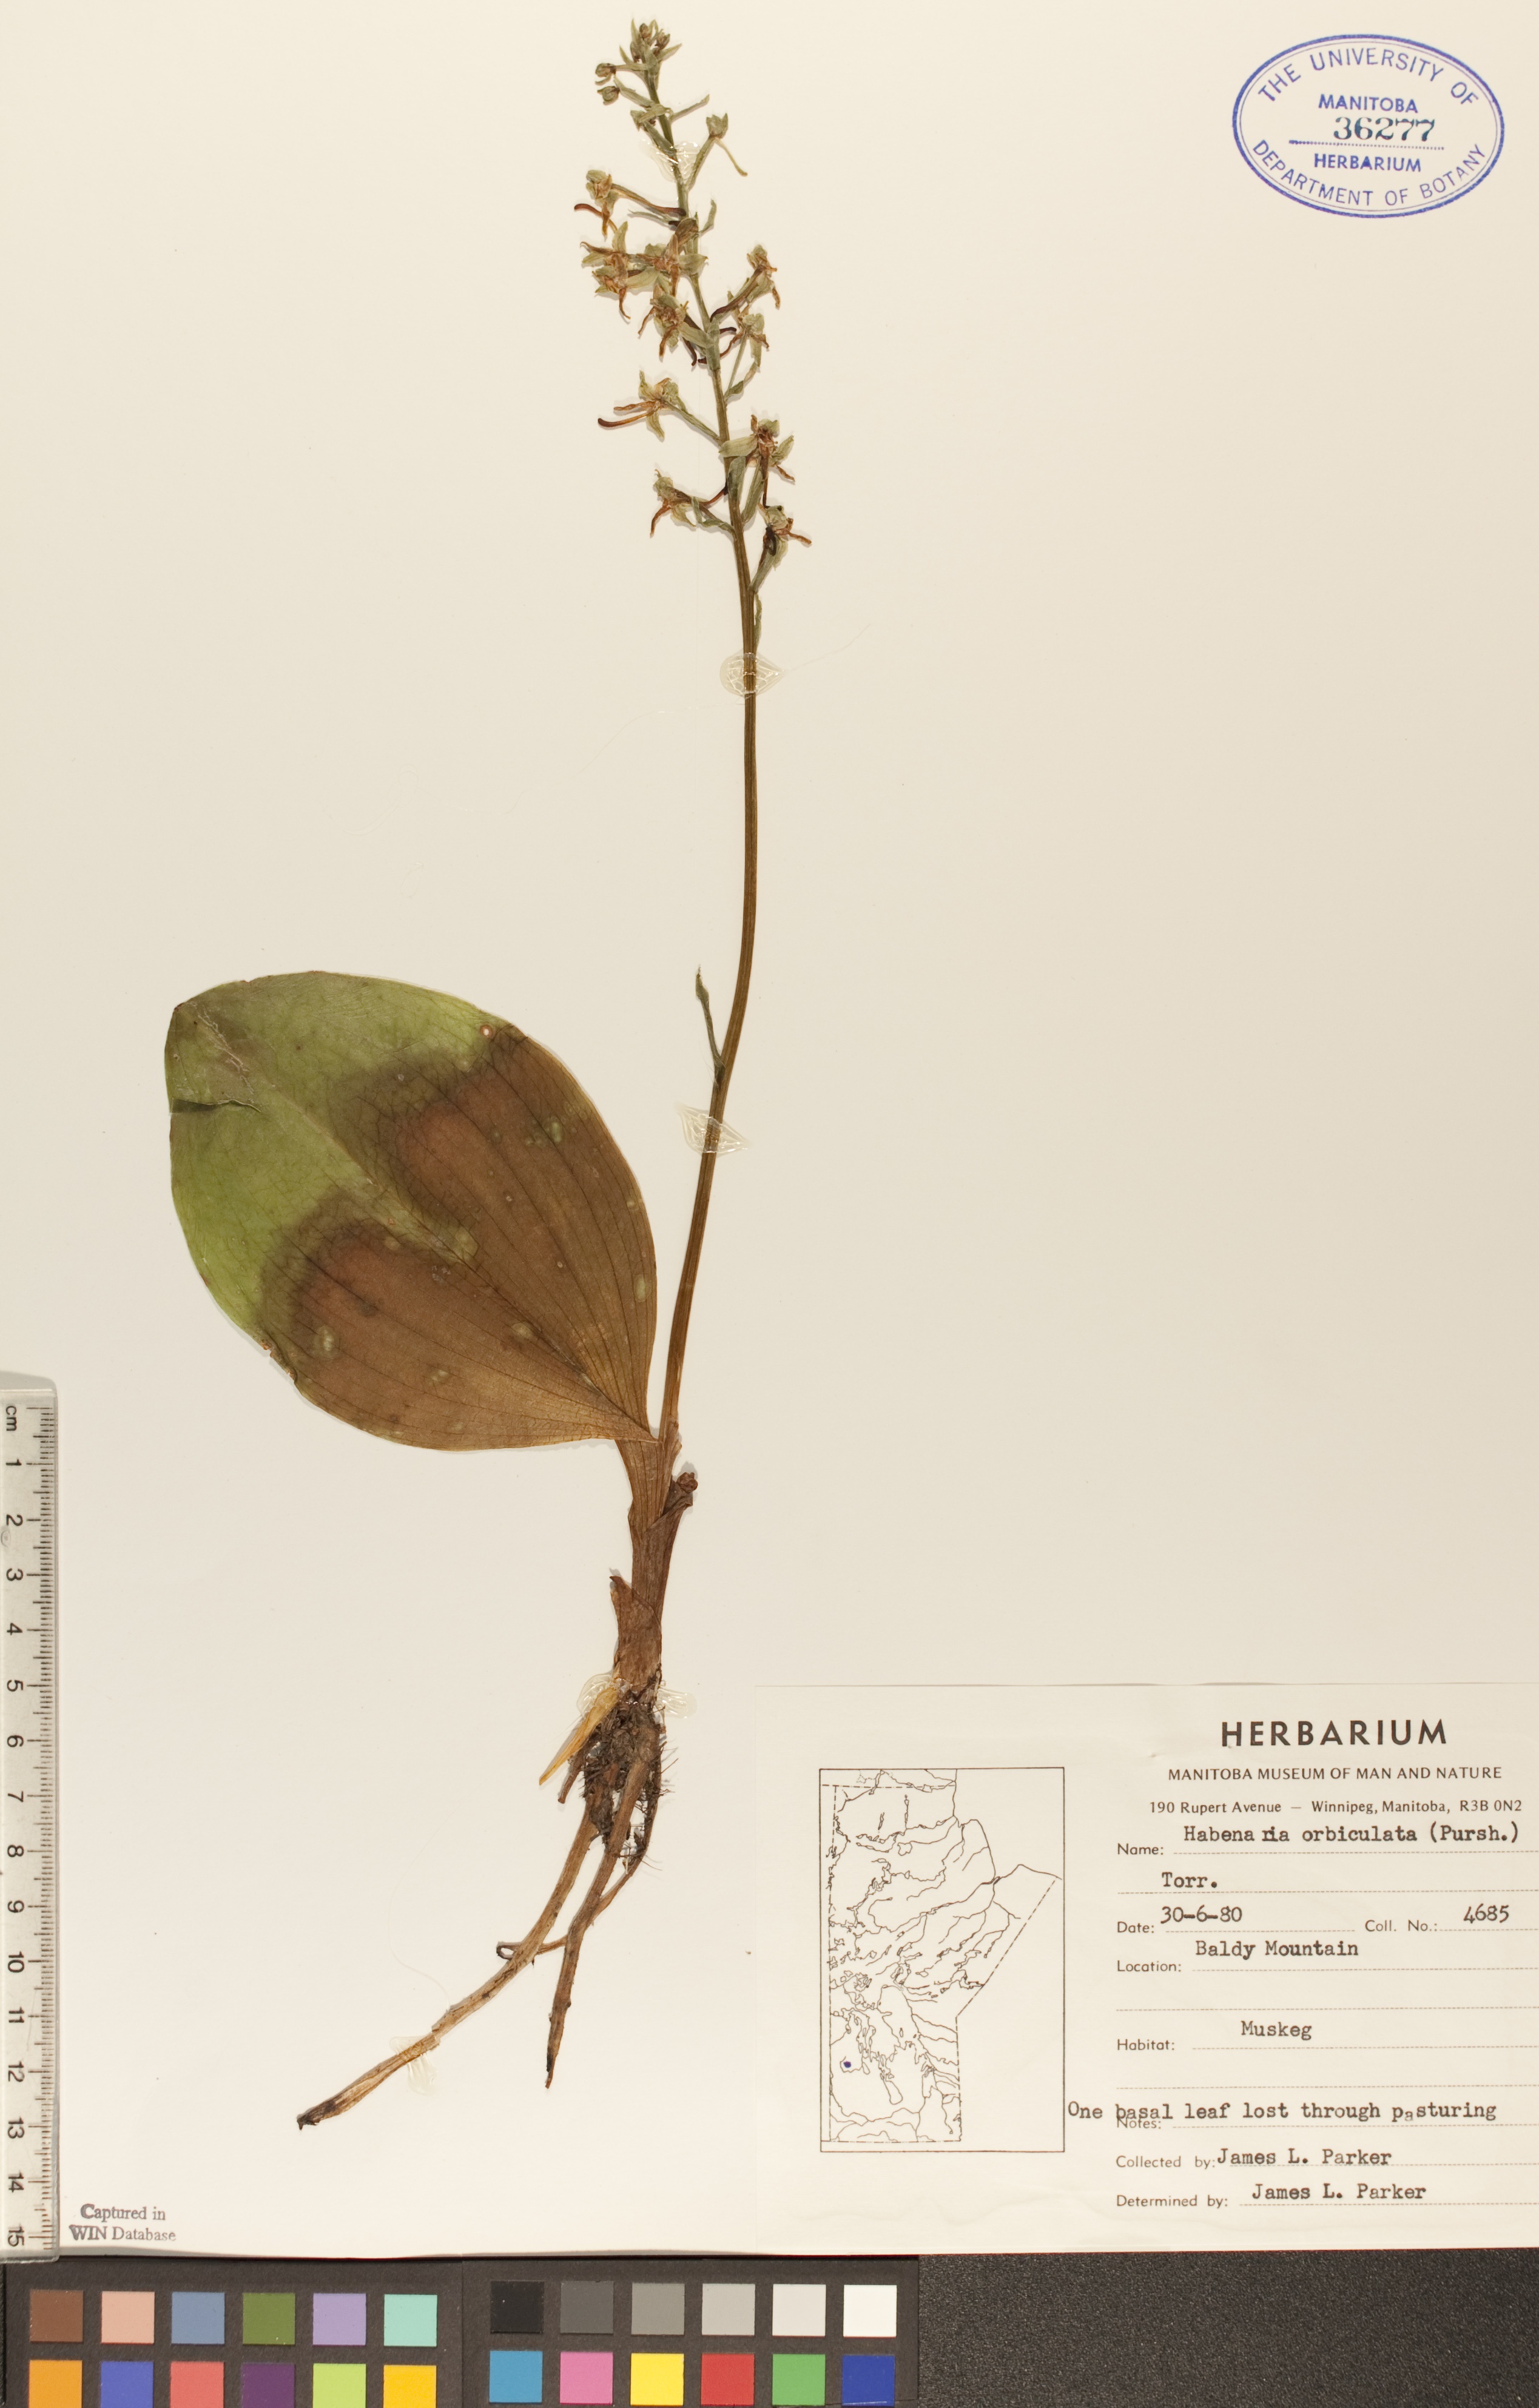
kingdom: Plantae
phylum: Tracheophyta
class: Liliopsida
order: Asparagales
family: Orchidaceae
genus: Platanthera
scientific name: Platanthera orbiculata
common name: Large round-leaved orchid
